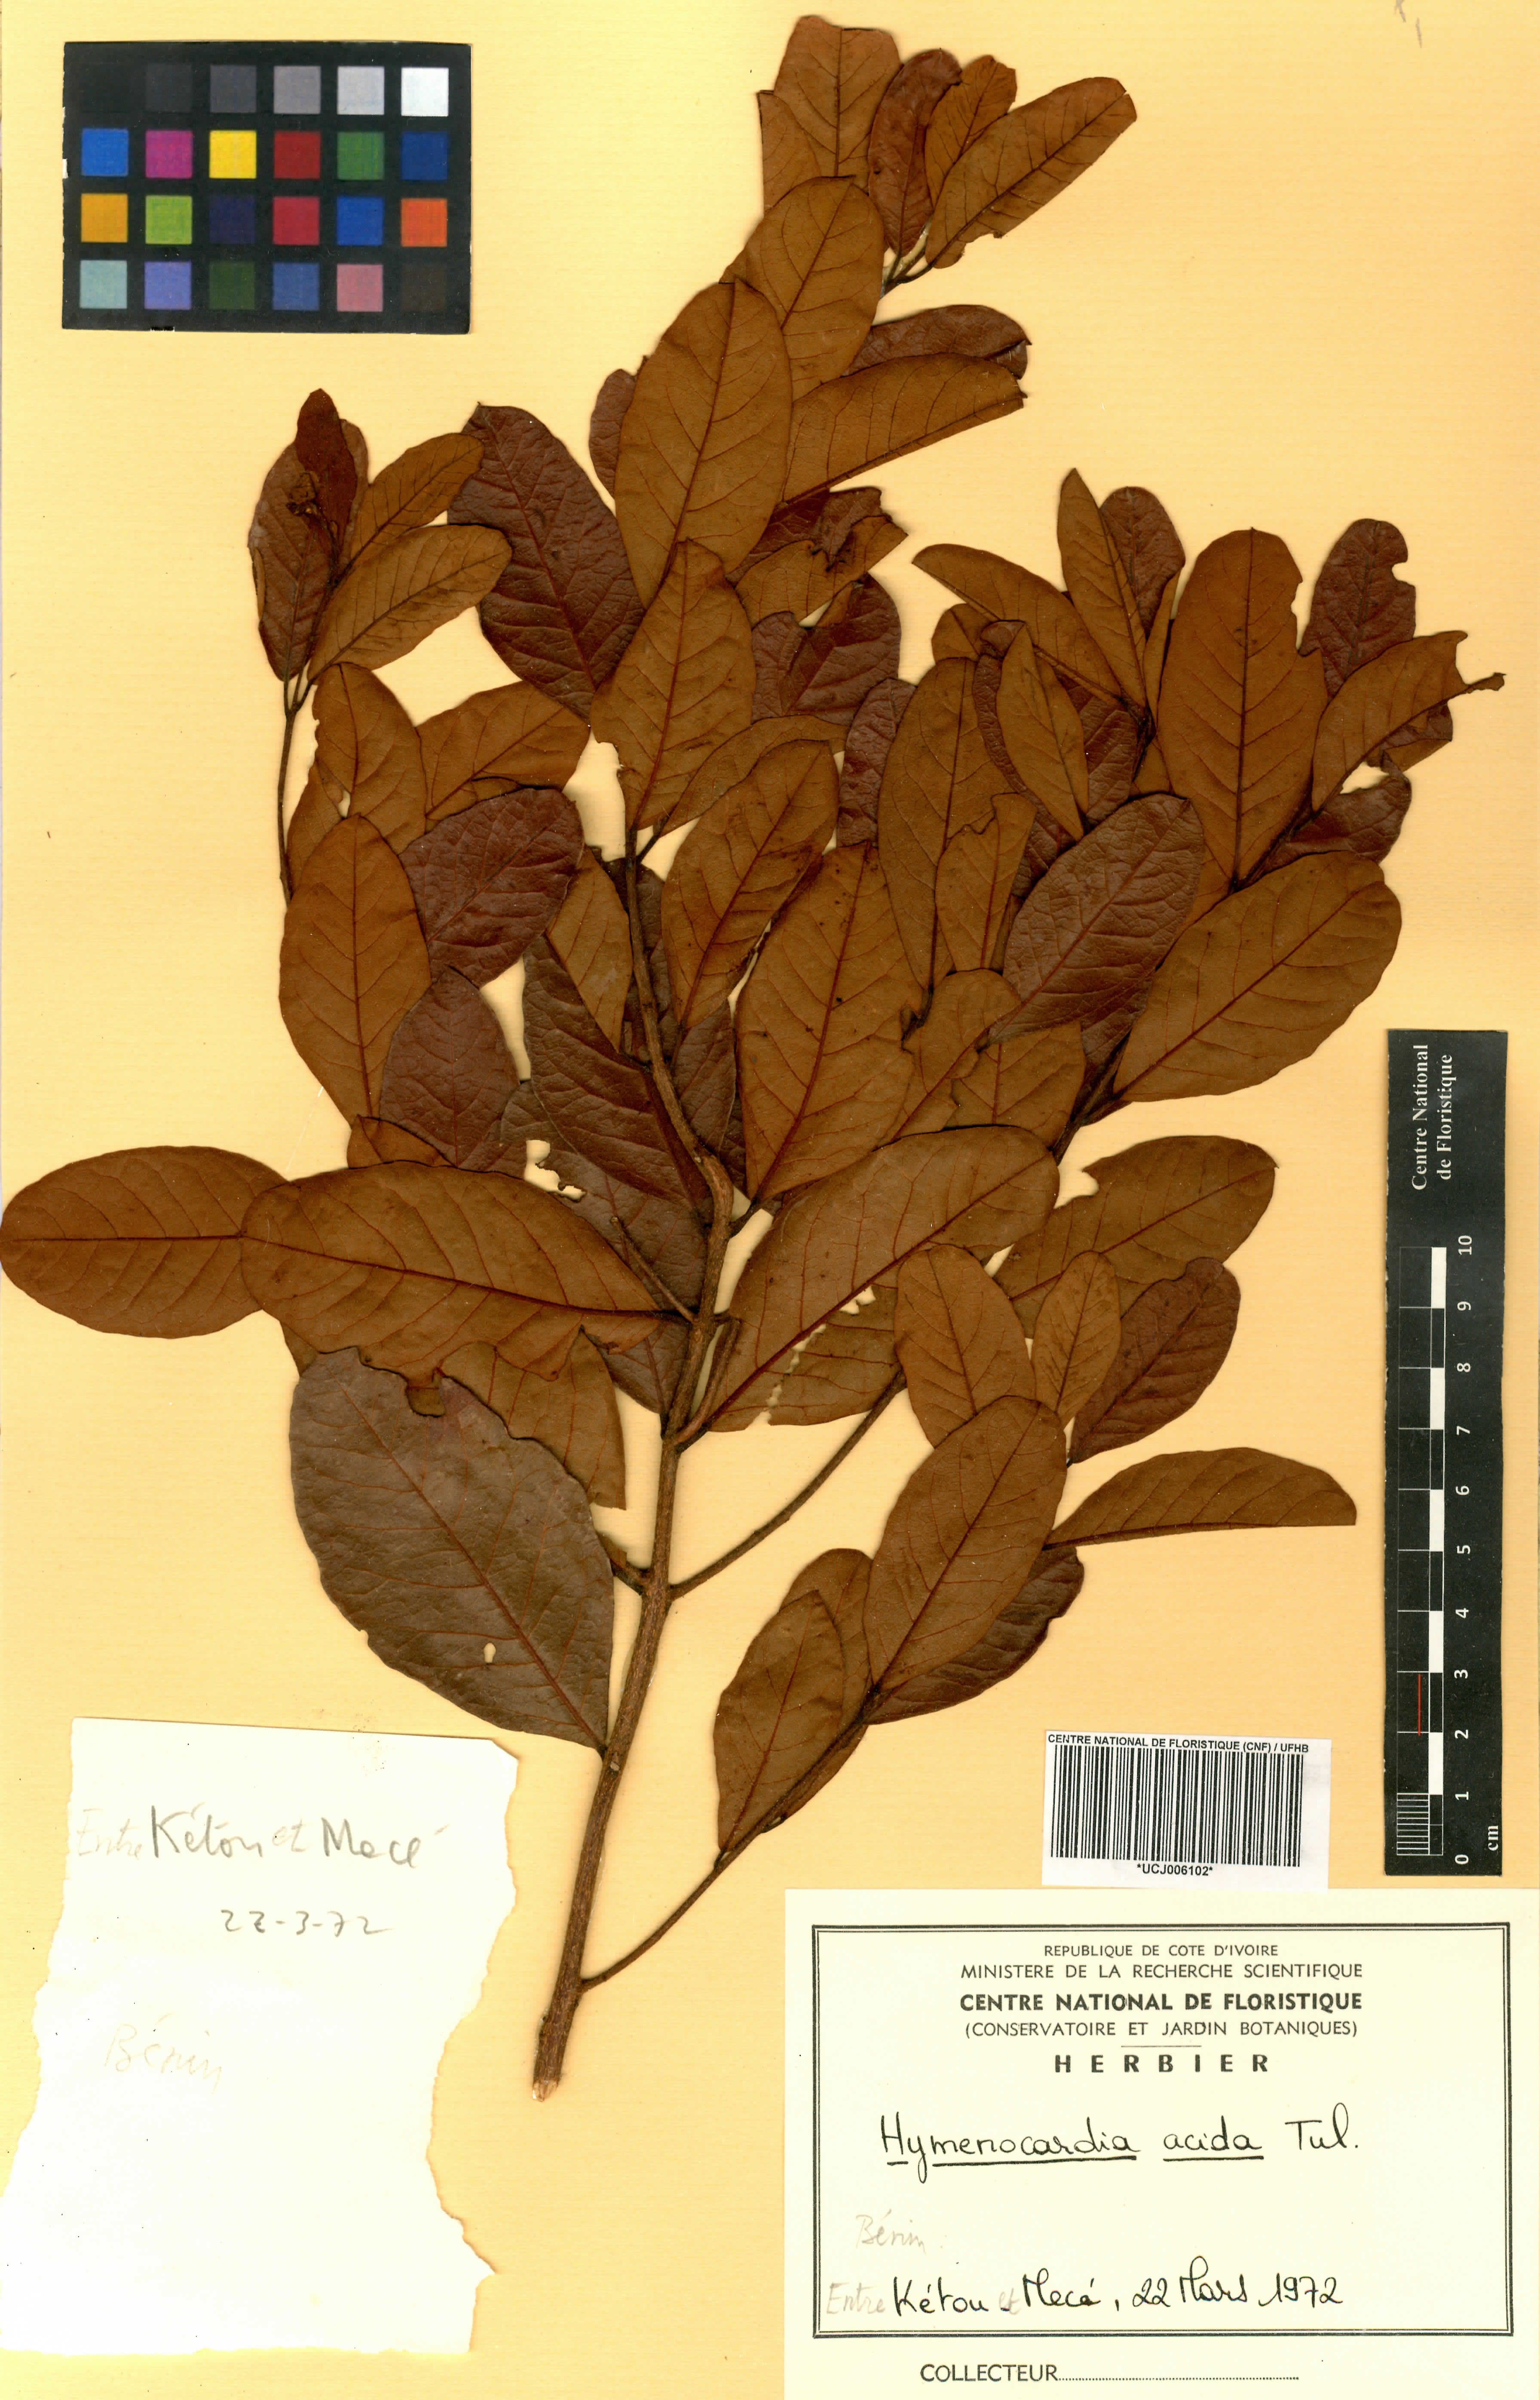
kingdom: Plantae
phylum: Tracheophyta
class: Magnoliopsida
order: Malpighiales
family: Phyllanthaceae
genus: Hymenocardia
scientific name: Hymenocardia acida
